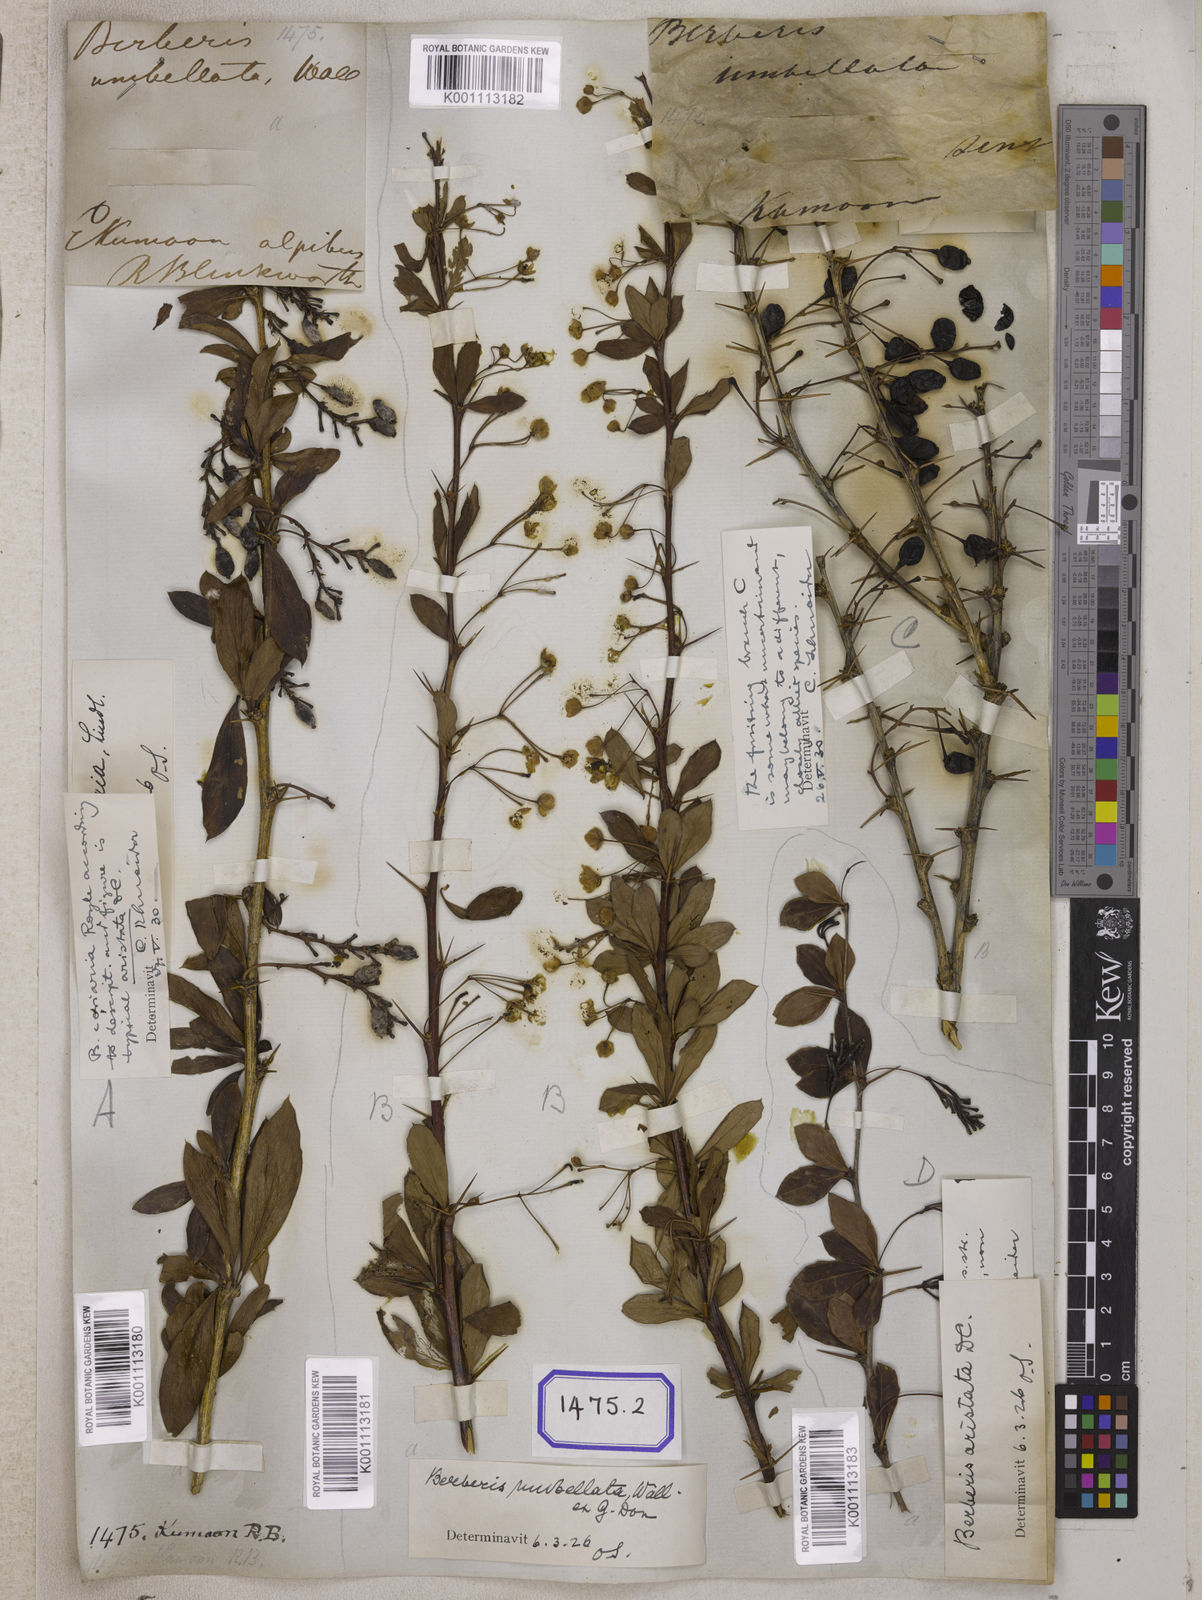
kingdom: Plantae
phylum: Tracheophyta
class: Magnoliopsida
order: Ranunculales
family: Berberidaceae
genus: Berberis
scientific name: Berberis
